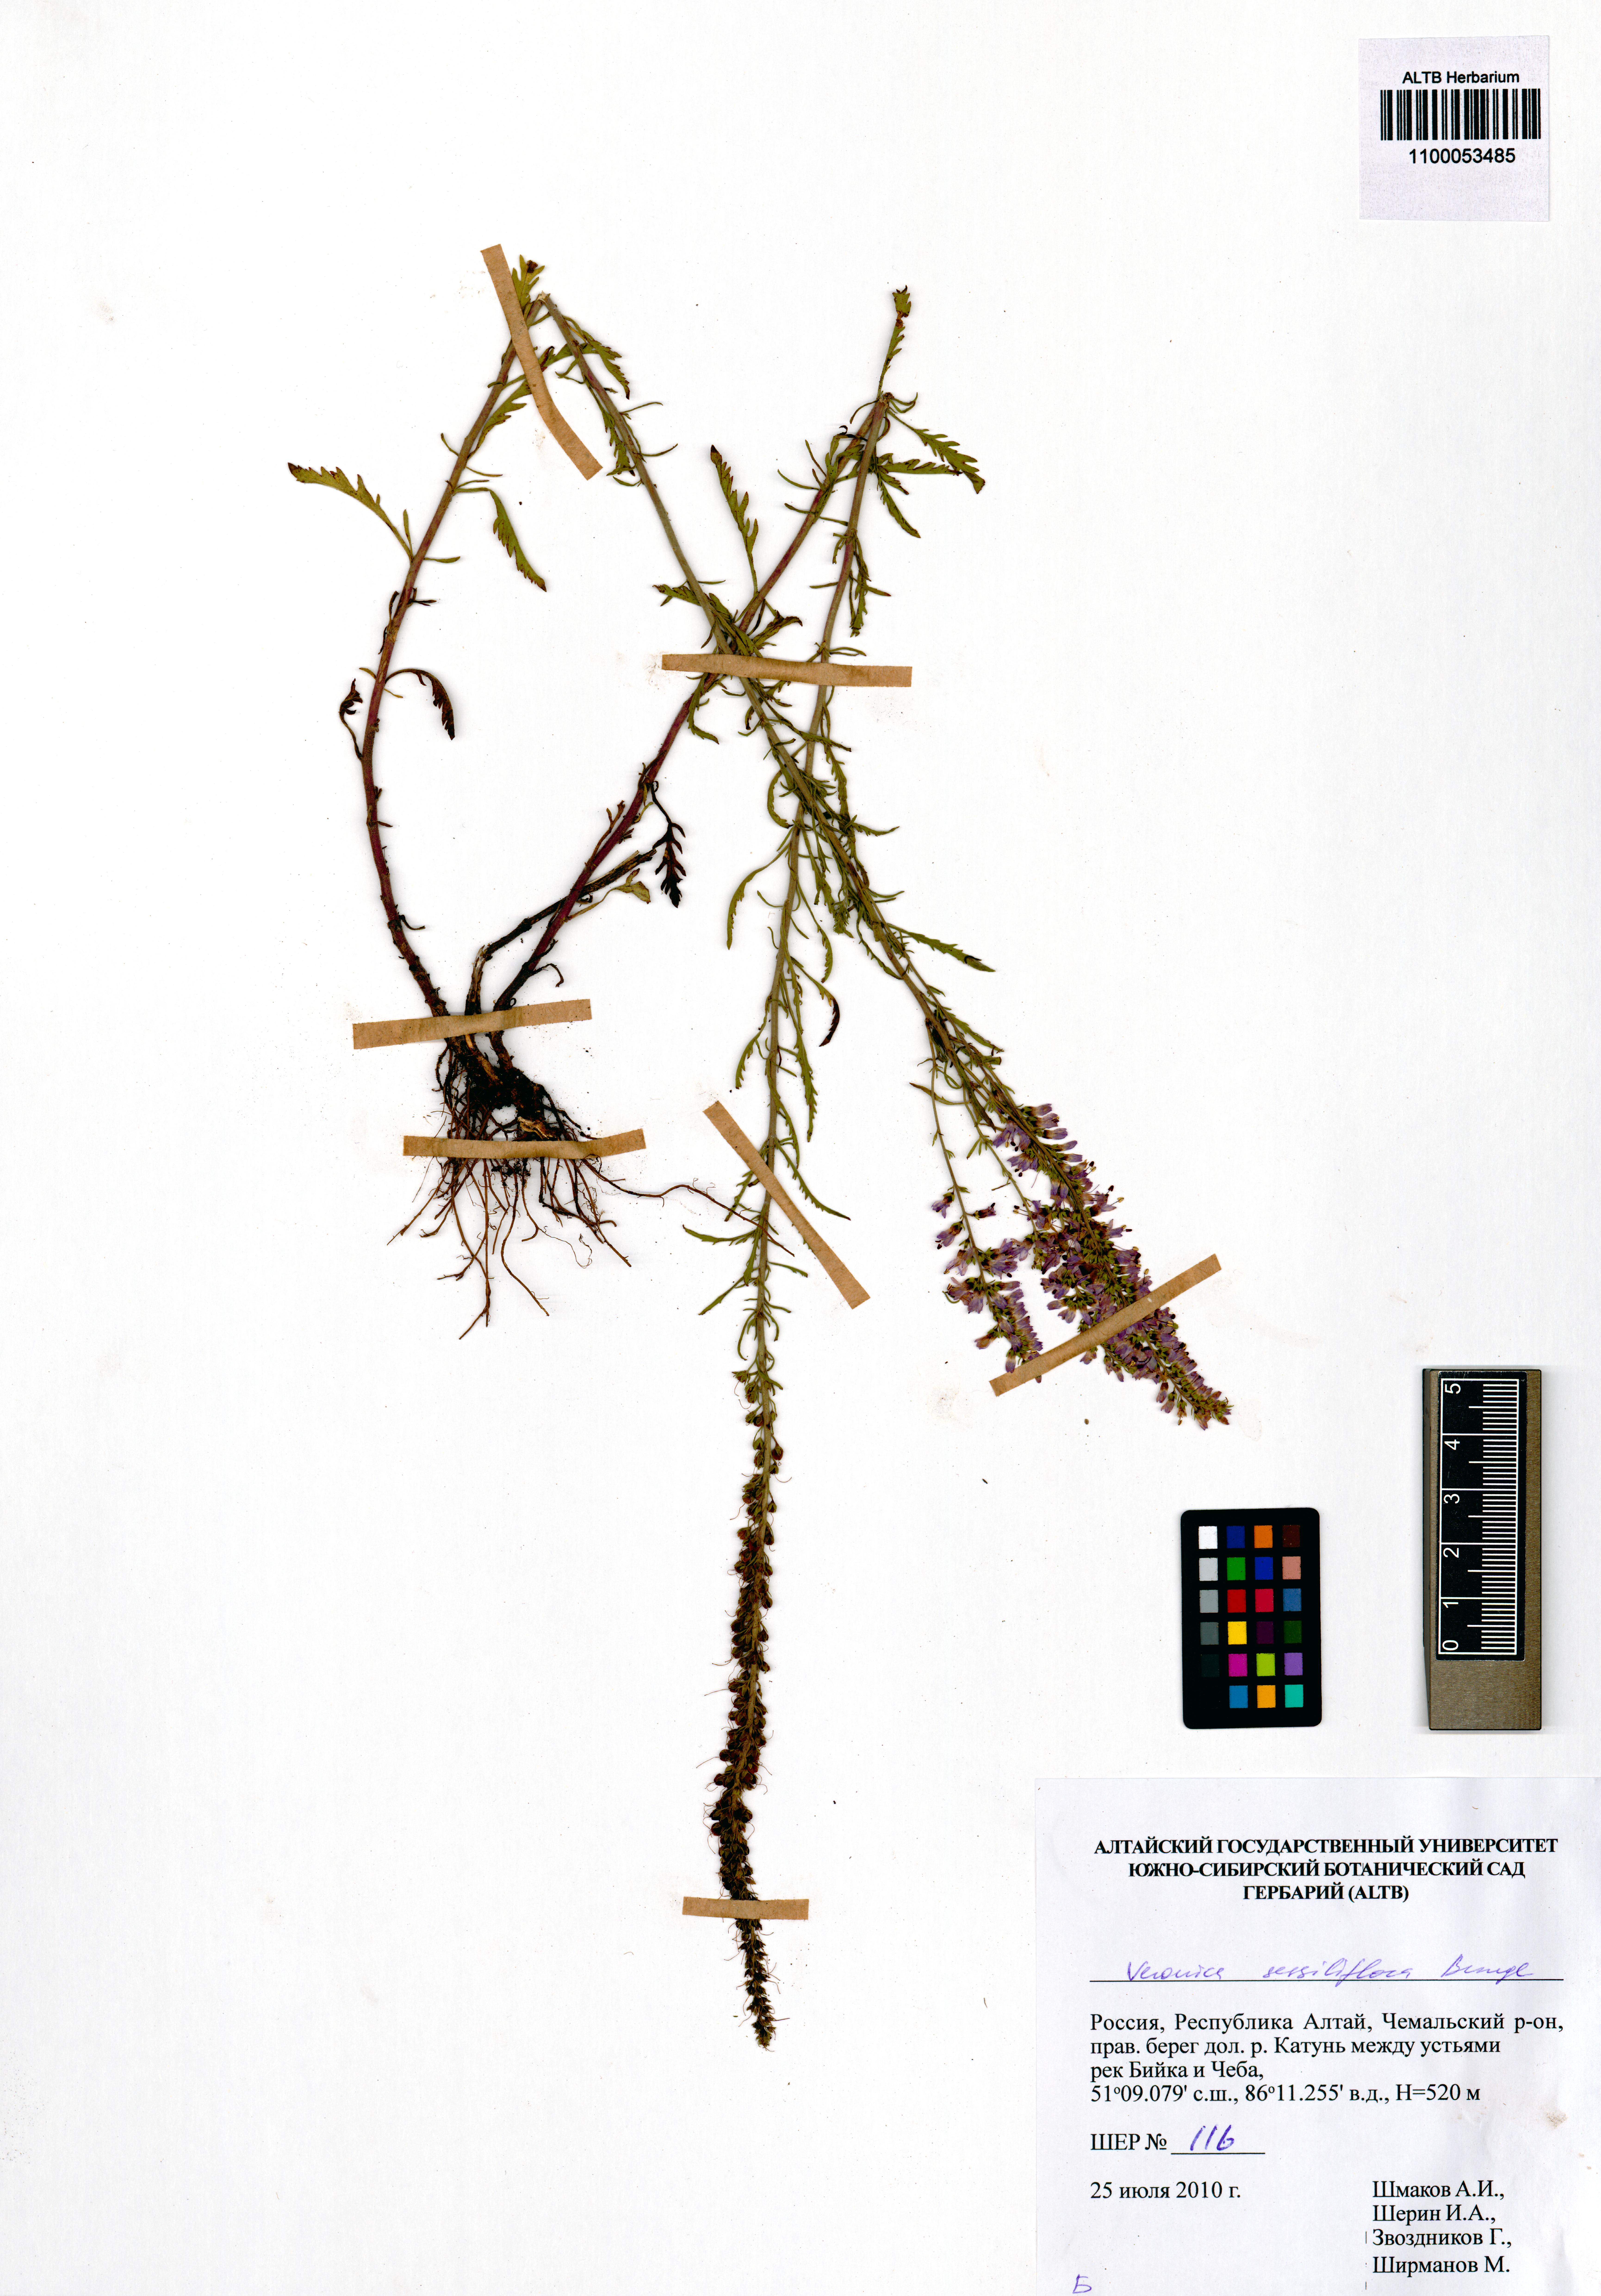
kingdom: Plantae
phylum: Tracheophyta
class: Magnoliopsida
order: Lamiales
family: Plantaginaceae
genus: Veronica
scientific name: Veronica sessiliflora
